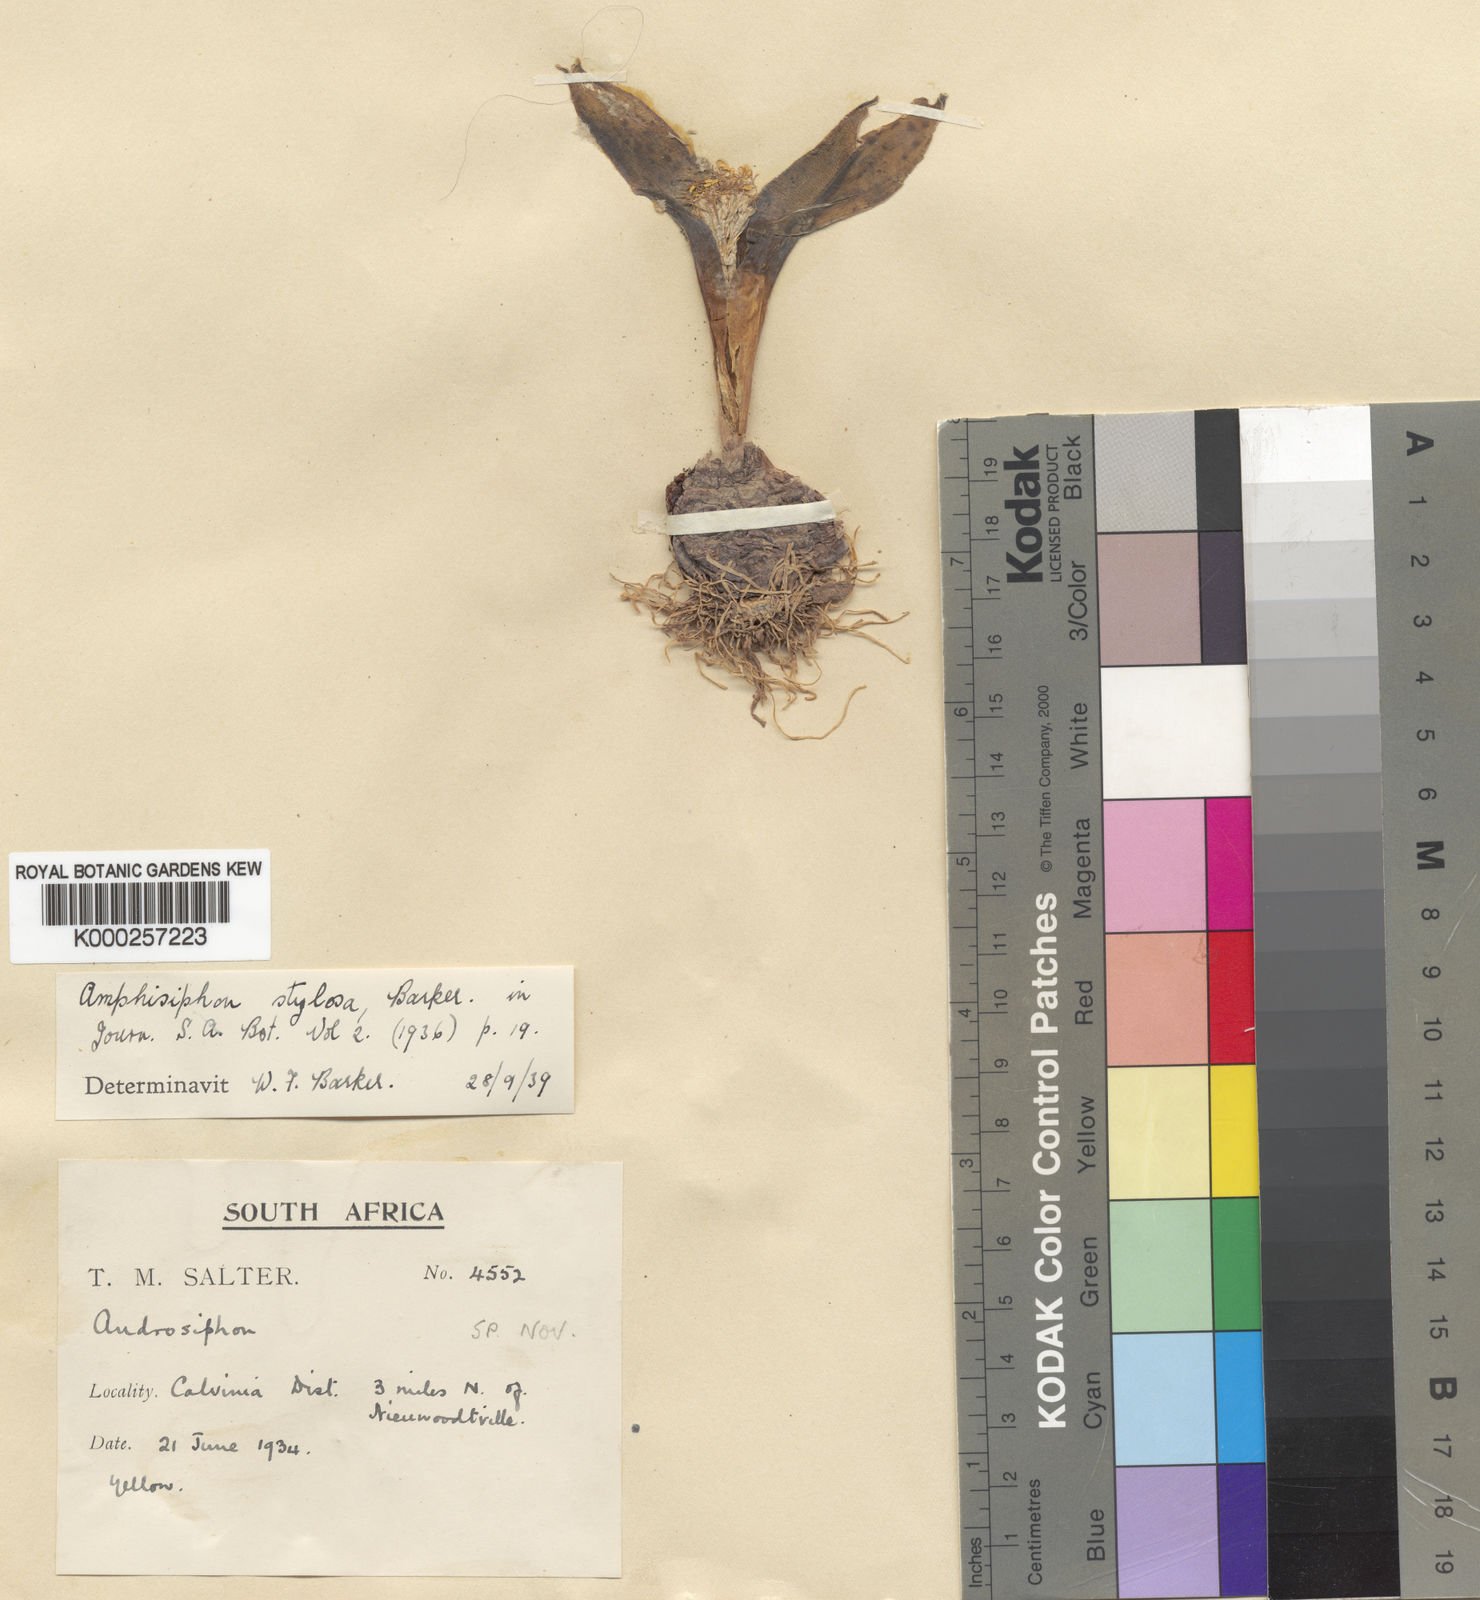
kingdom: Plantae
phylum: Tracheophyta
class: Liliopsida
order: Asparagales
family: Asparagaceae
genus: Daubenya
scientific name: Daubenya
